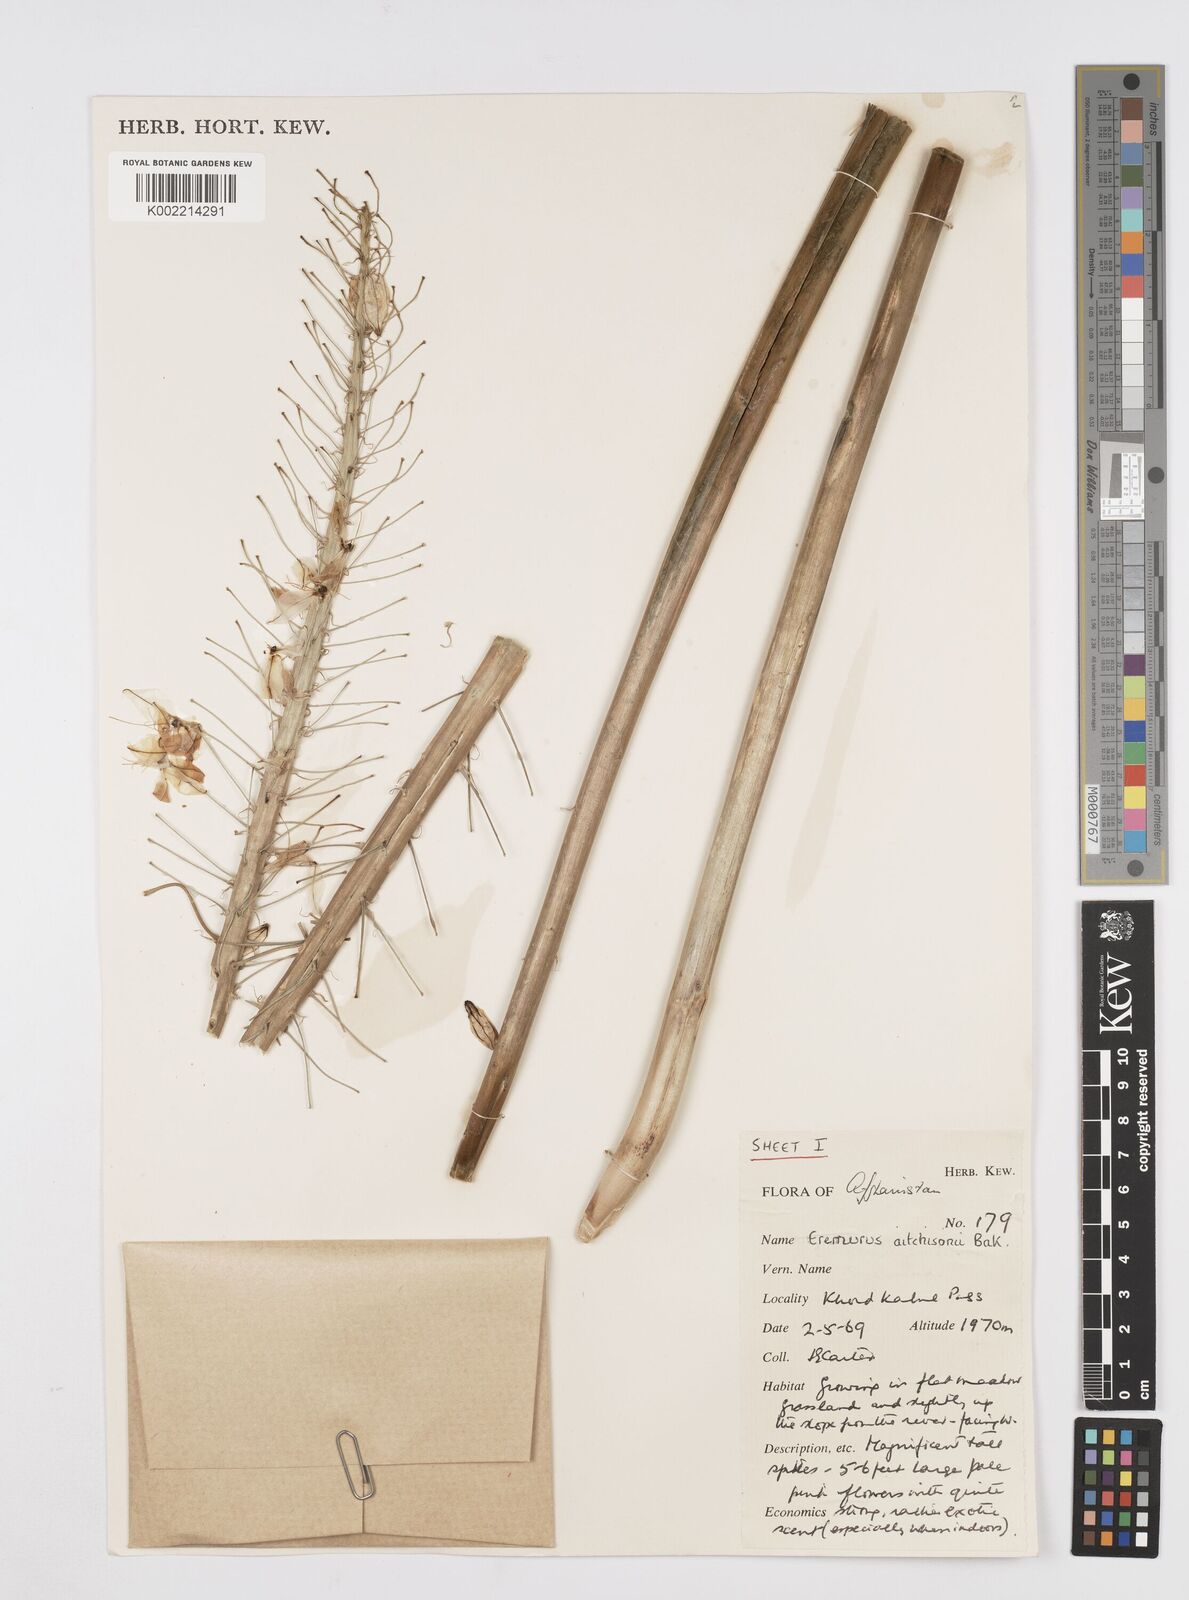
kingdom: Plantae
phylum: Tracheophyta
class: Liliopsida
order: Asparagales
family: Asphodelaceae
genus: Eremurus
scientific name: Eremurus aitchisonii
